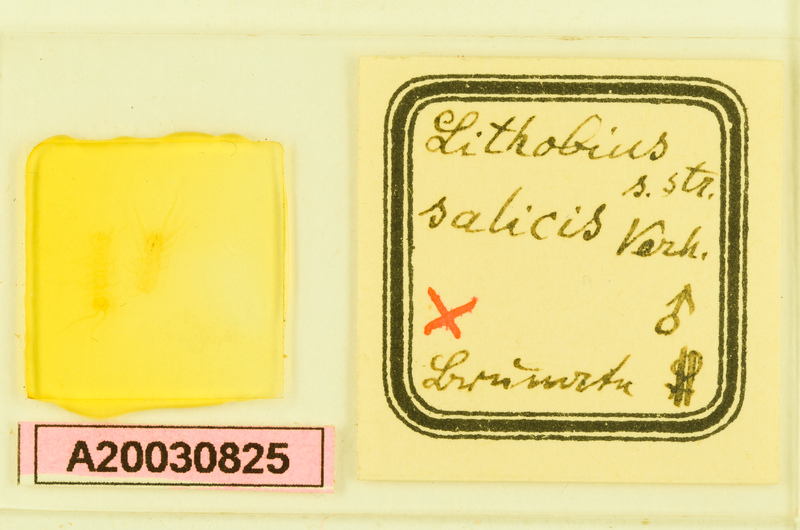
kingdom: Animalia
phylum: Arthropoda
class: Chilopoda
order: Lithobiomorpha
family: Lithobiidae
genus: Lithobius
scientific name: Lithobius salicis
